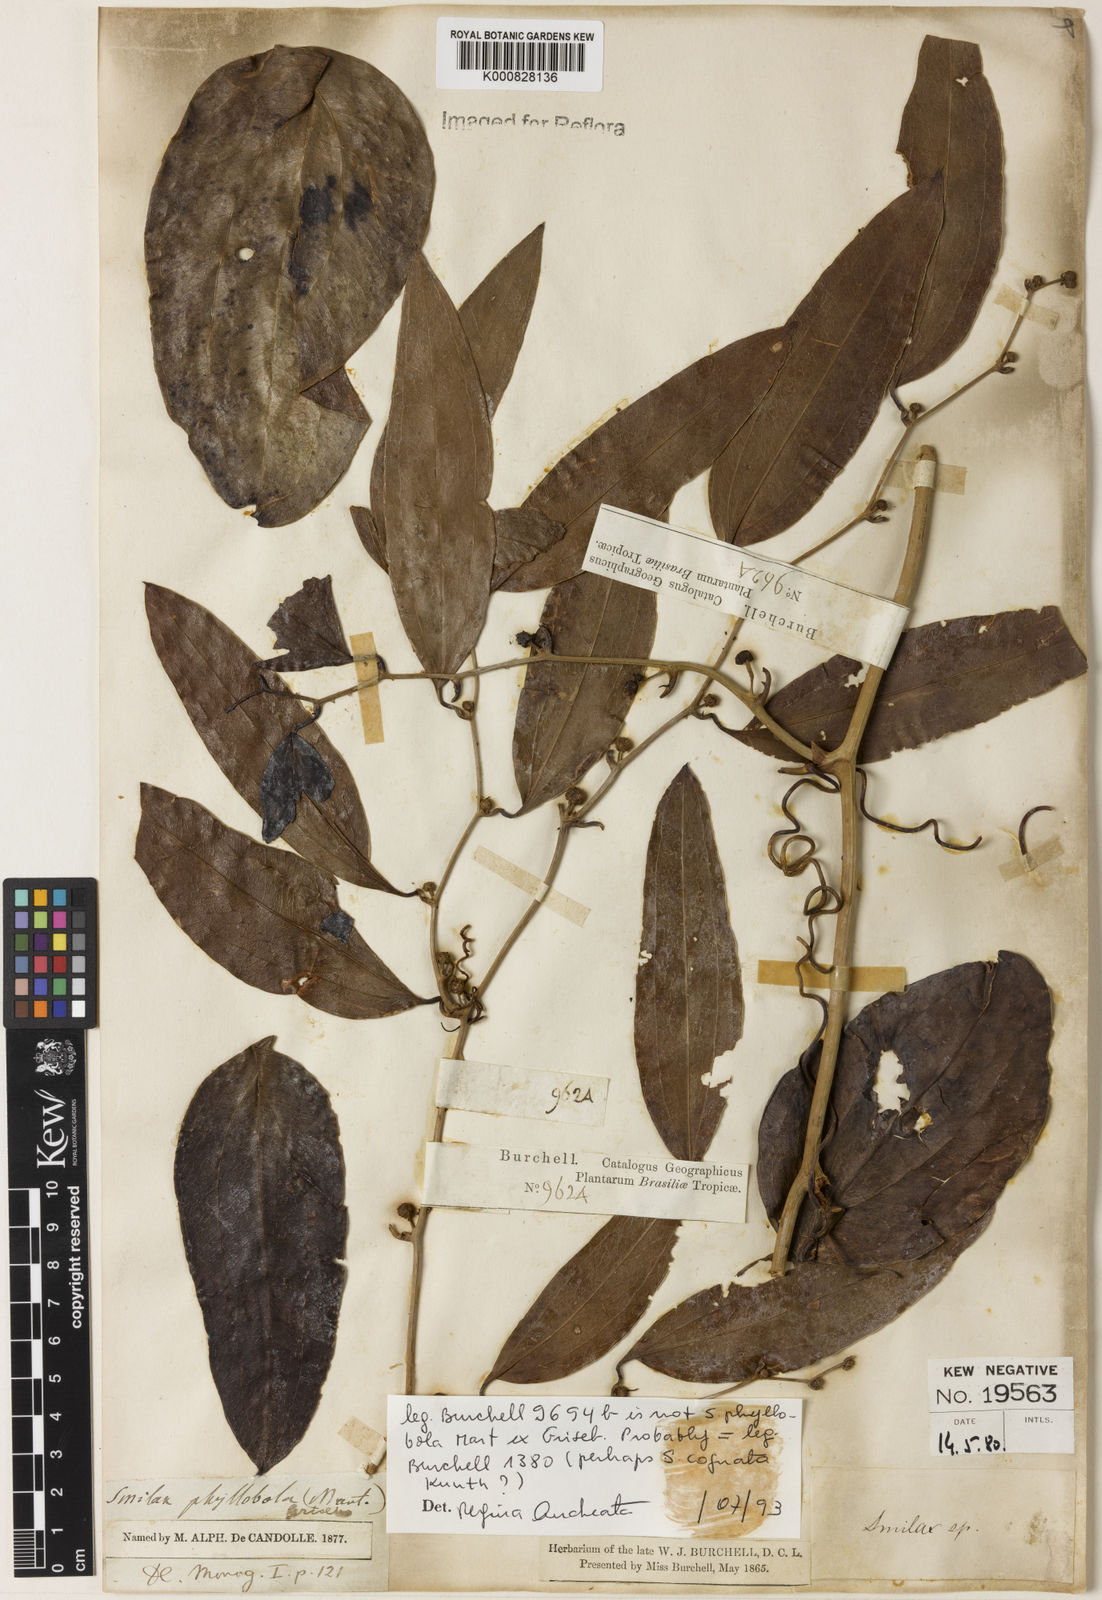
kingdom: Plantae
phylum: Tracheophyta
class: Liliopsida
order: Liliales
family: Smilacaceae
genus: Smilax
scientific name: Smilax cognata
